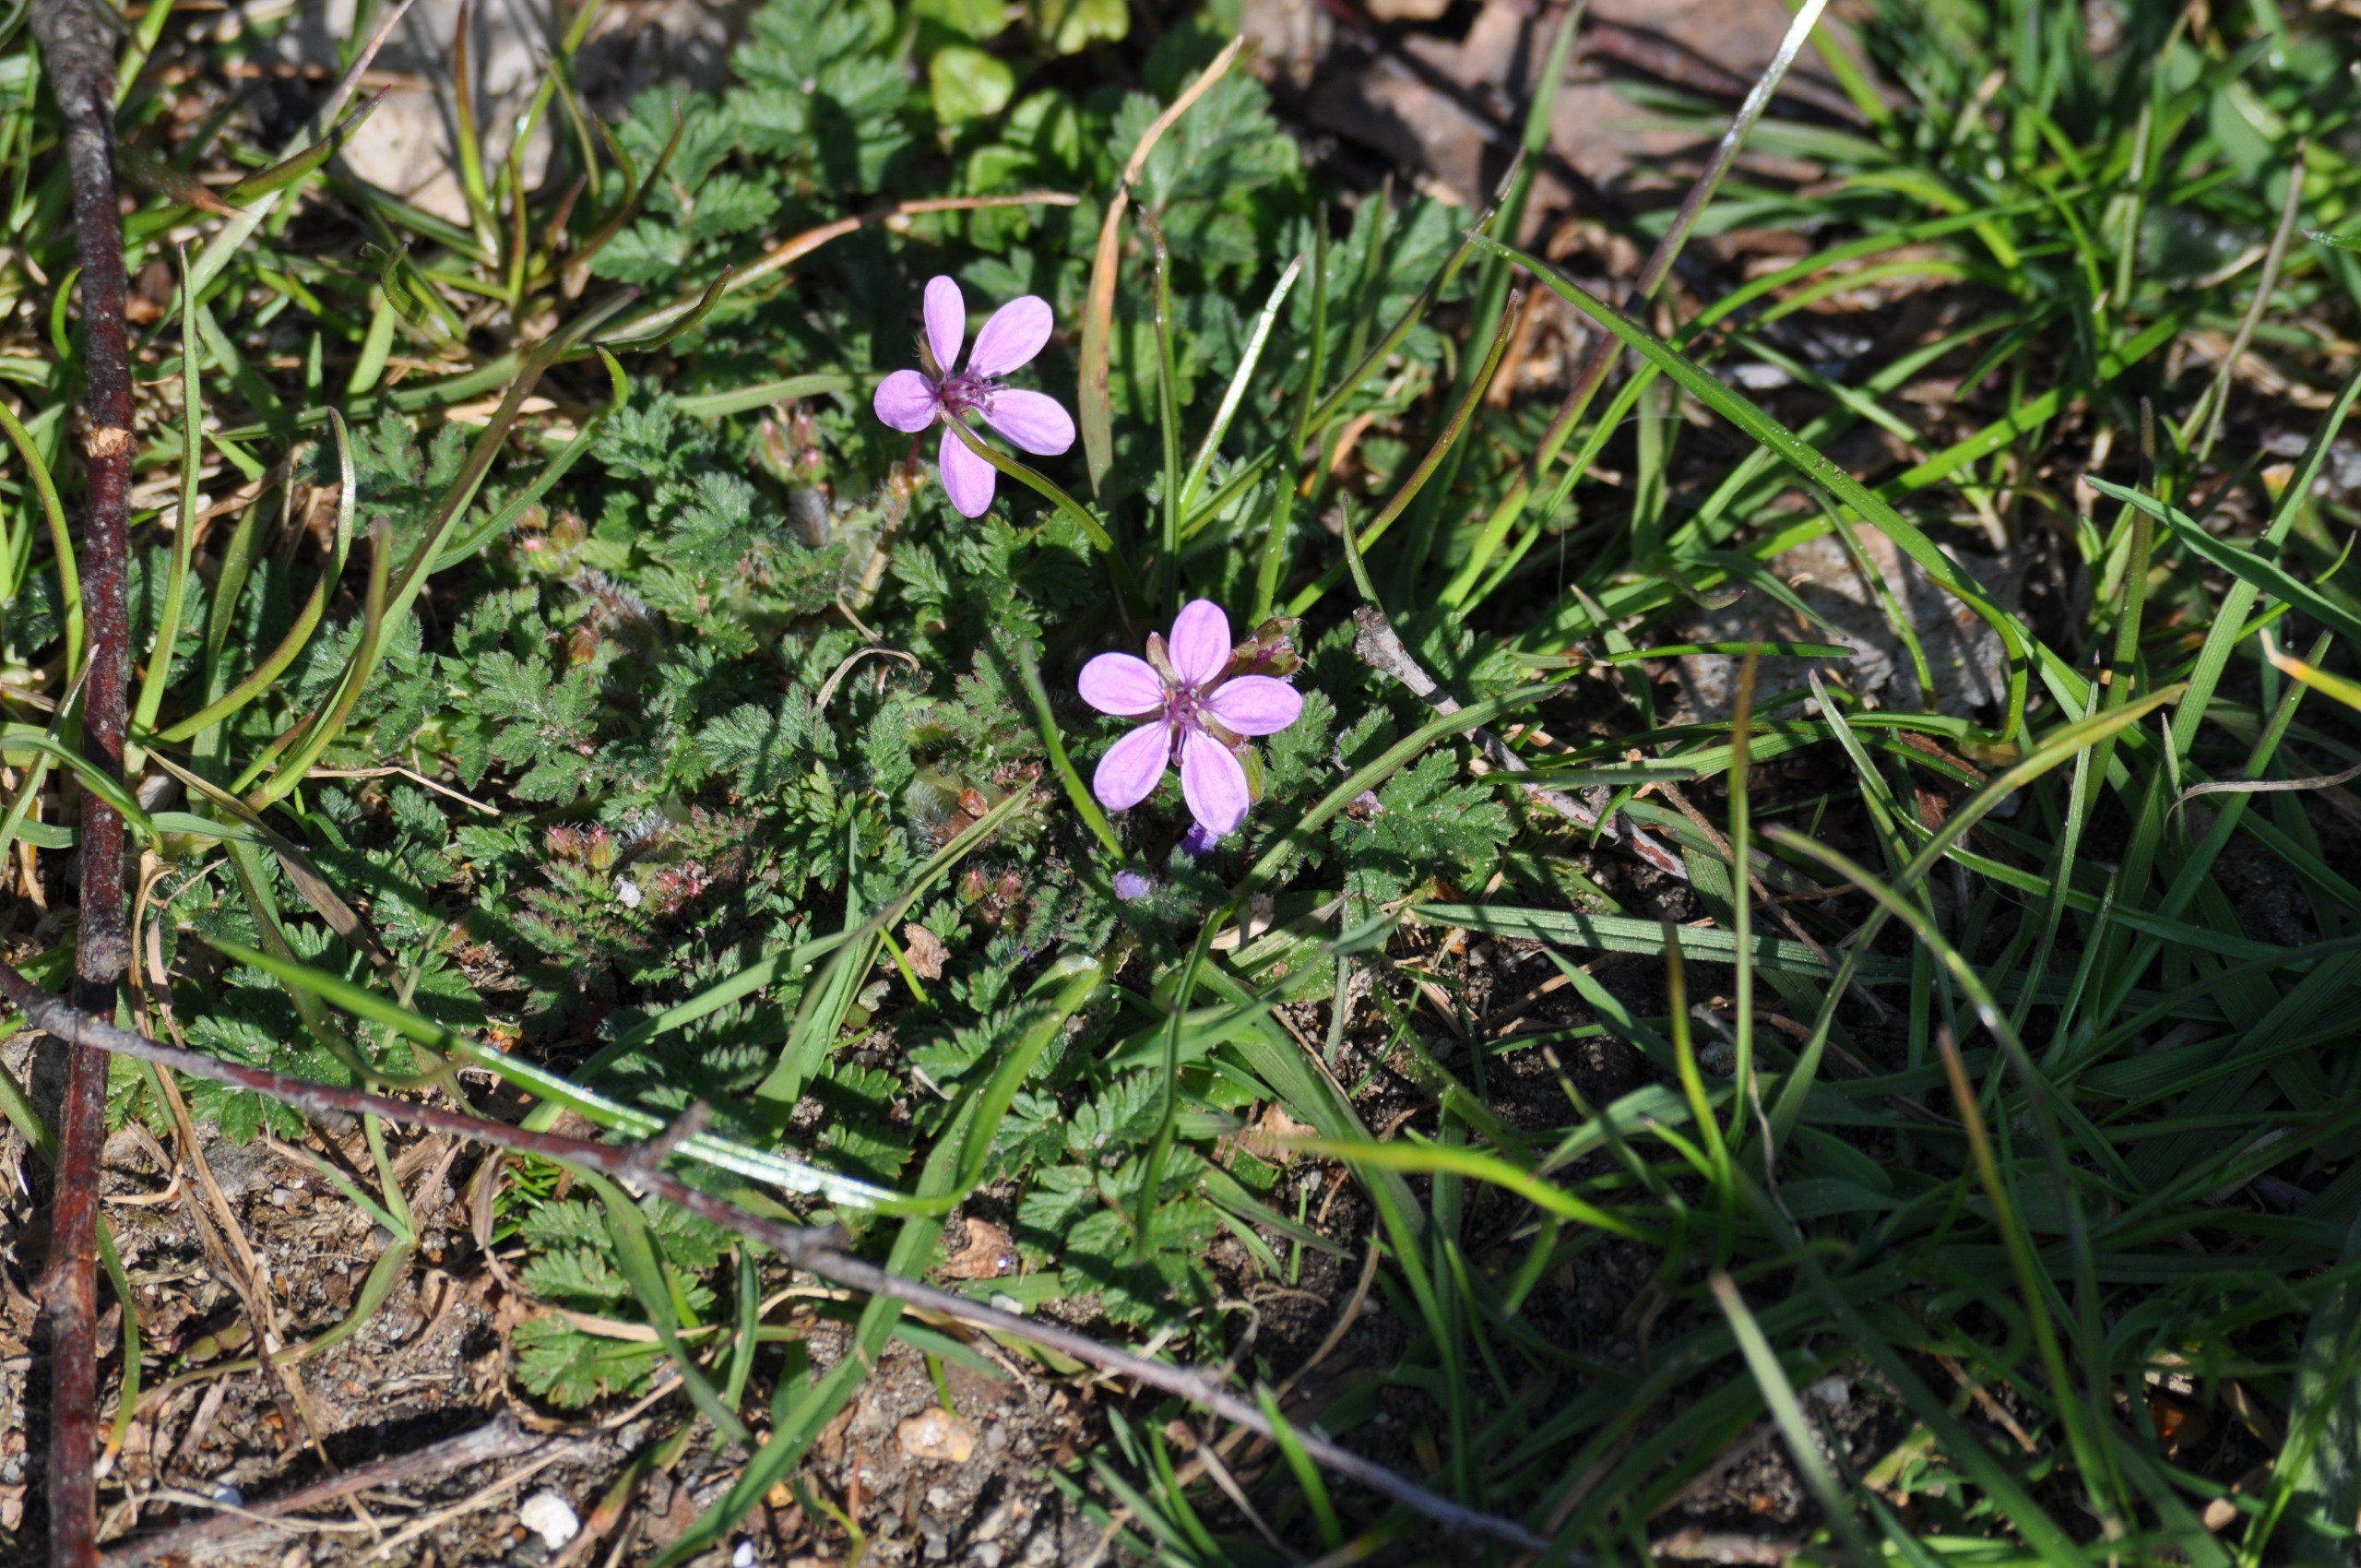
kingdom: Plantae
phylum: Tracheophyta
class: Magnoliopsida
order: Geraniales
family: Geraniaceae
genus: Erodium
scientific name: Erodium cicutarium
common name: Hejrenæb
